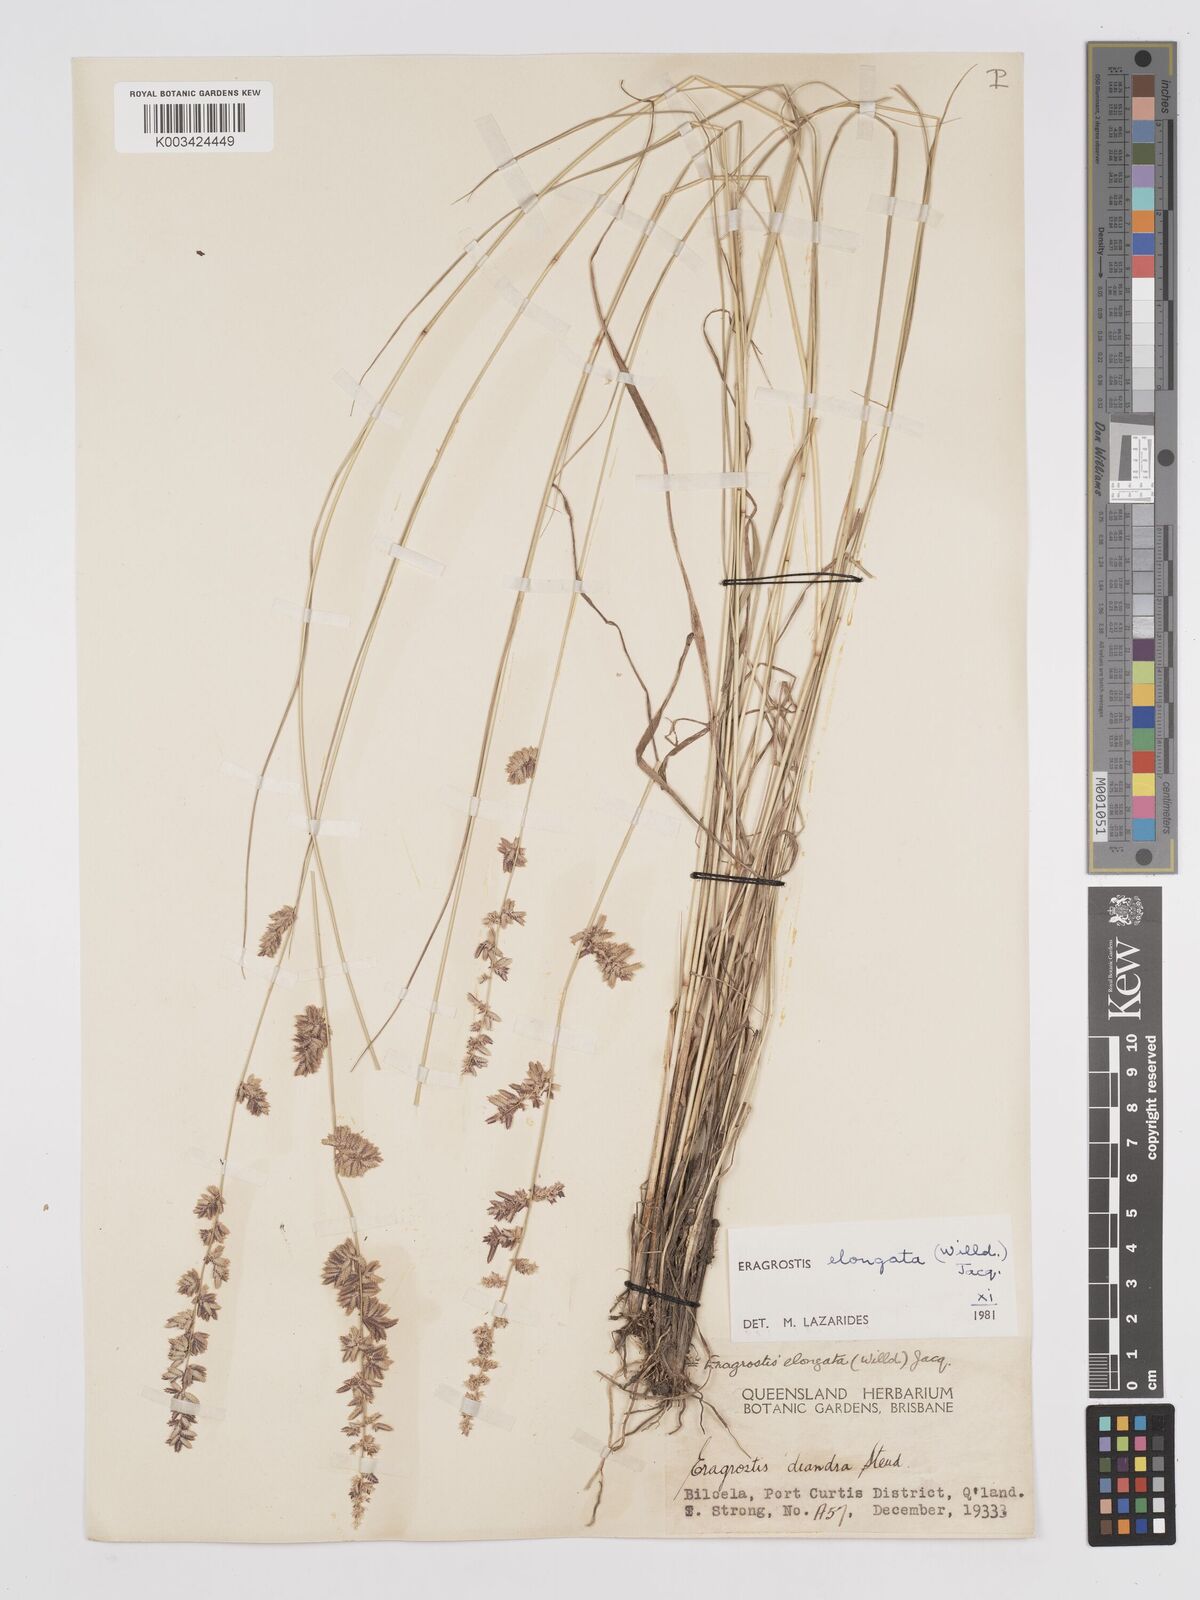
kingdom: Plantae
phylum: Tracheophyta
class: Liliopsida
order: Poales
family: Poaceae
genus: Eragrostis
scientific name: Eragrostis elongata
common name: Long lovegrass
